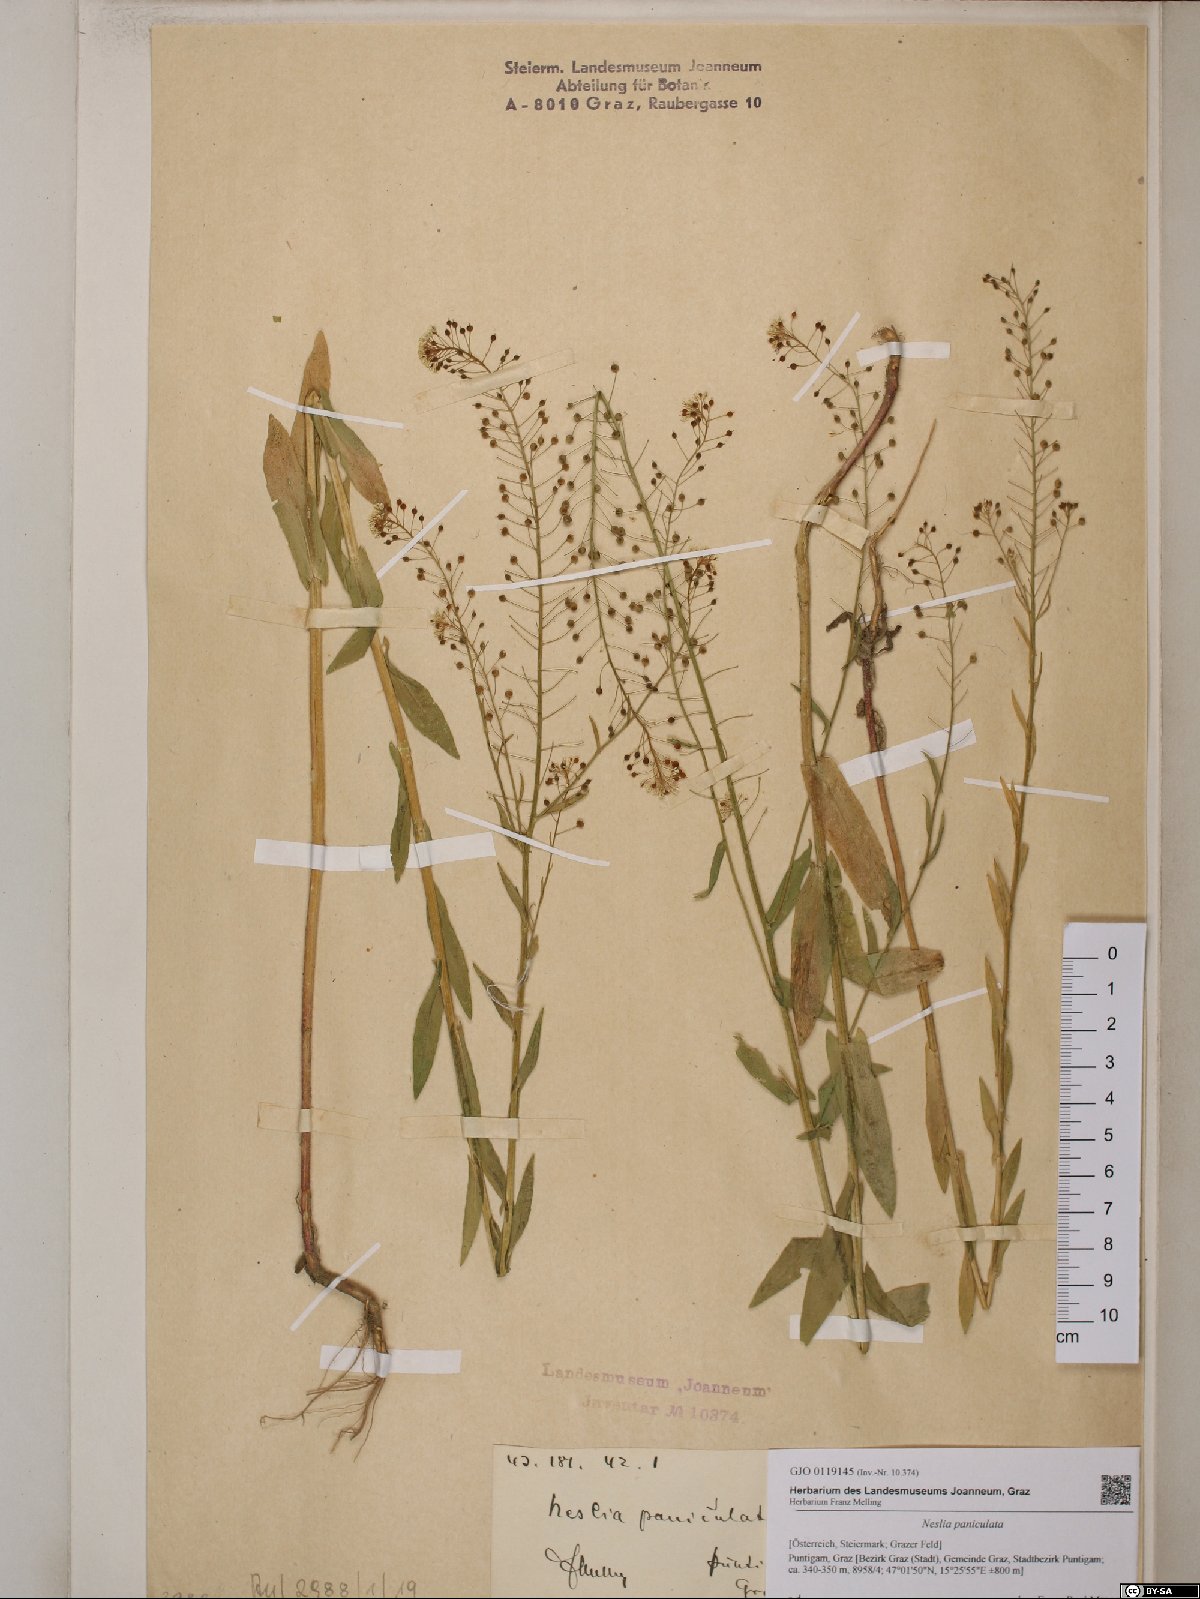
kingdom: Plantae
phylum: Tracheophyta
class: Magnoliopsida
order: Brassicales
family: Brassicaceae
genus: Neslia
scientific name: Neslia paniculata
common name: Ball mustard
